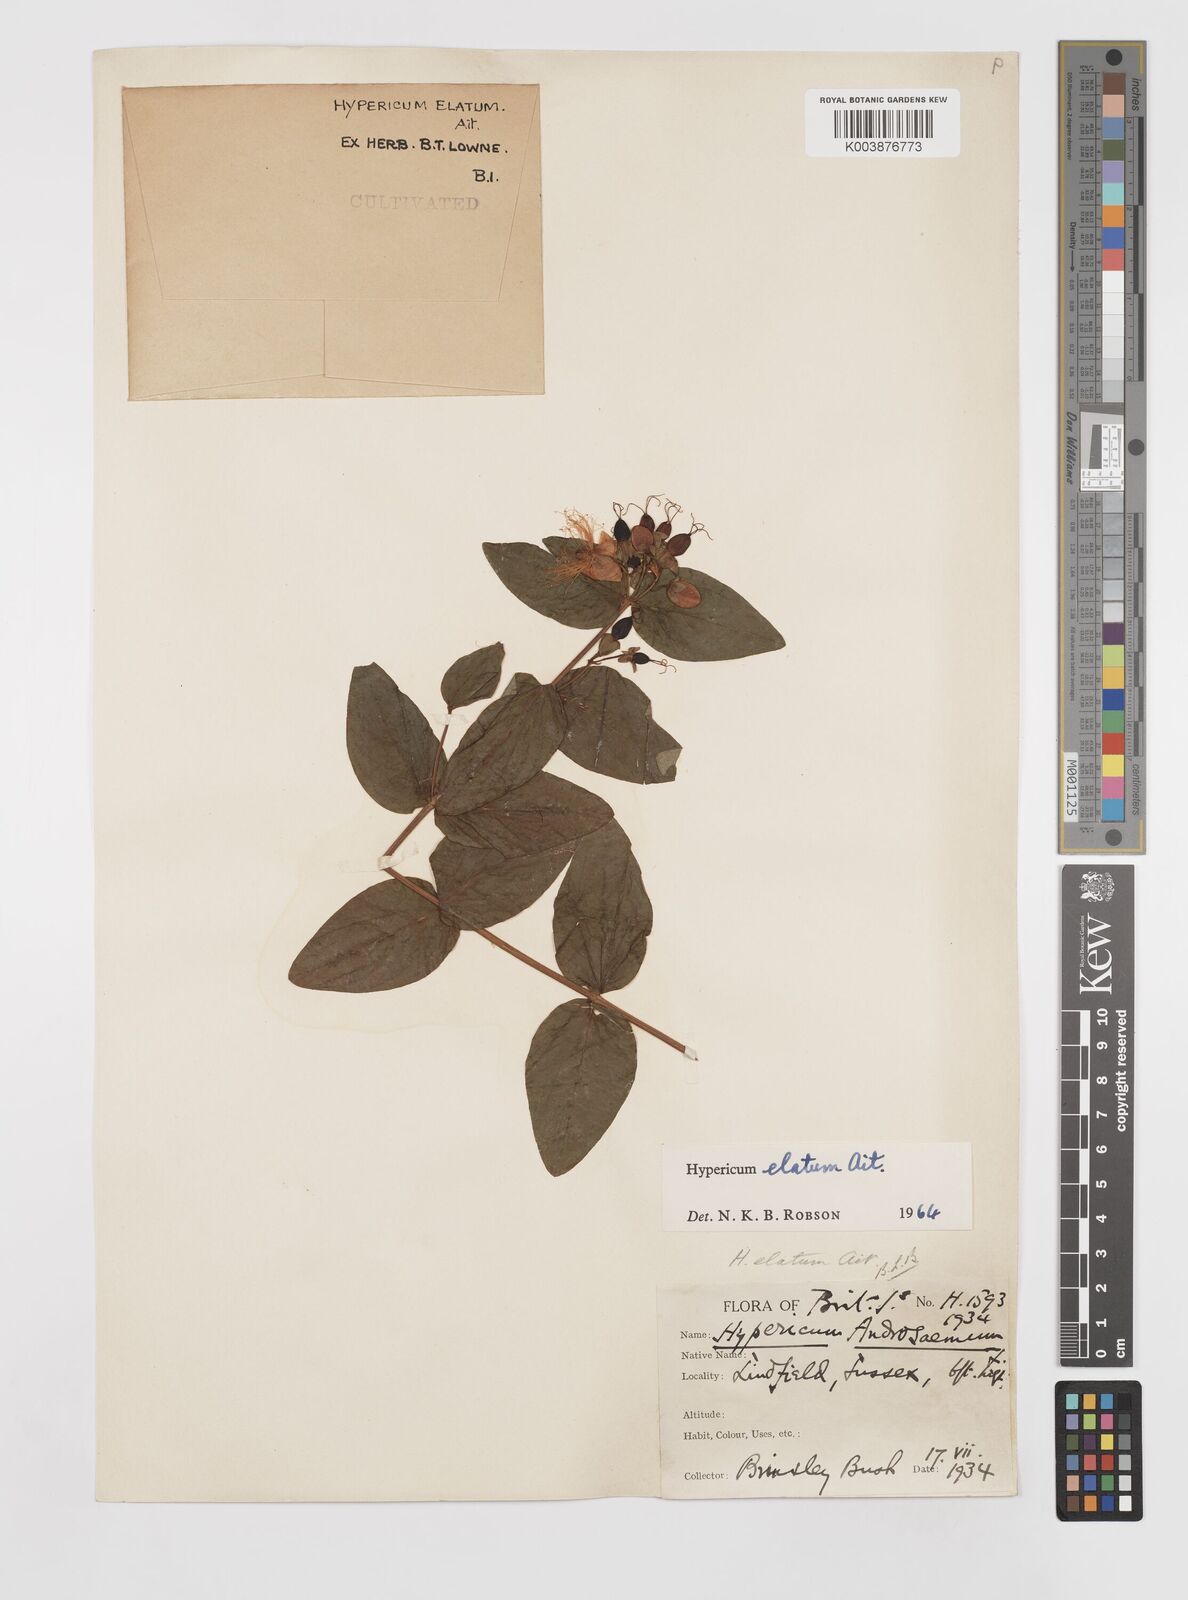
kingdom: Plantae
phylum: Tracheophyta
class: Magnoliopsida
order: Malpighiales
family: Hypericaceae
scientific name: Hypericaceae
